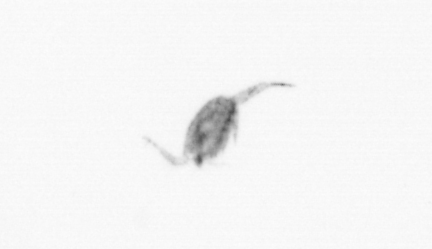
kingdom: Animalia
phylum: Arthropoda
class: Copepoda
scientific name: Copepoda
